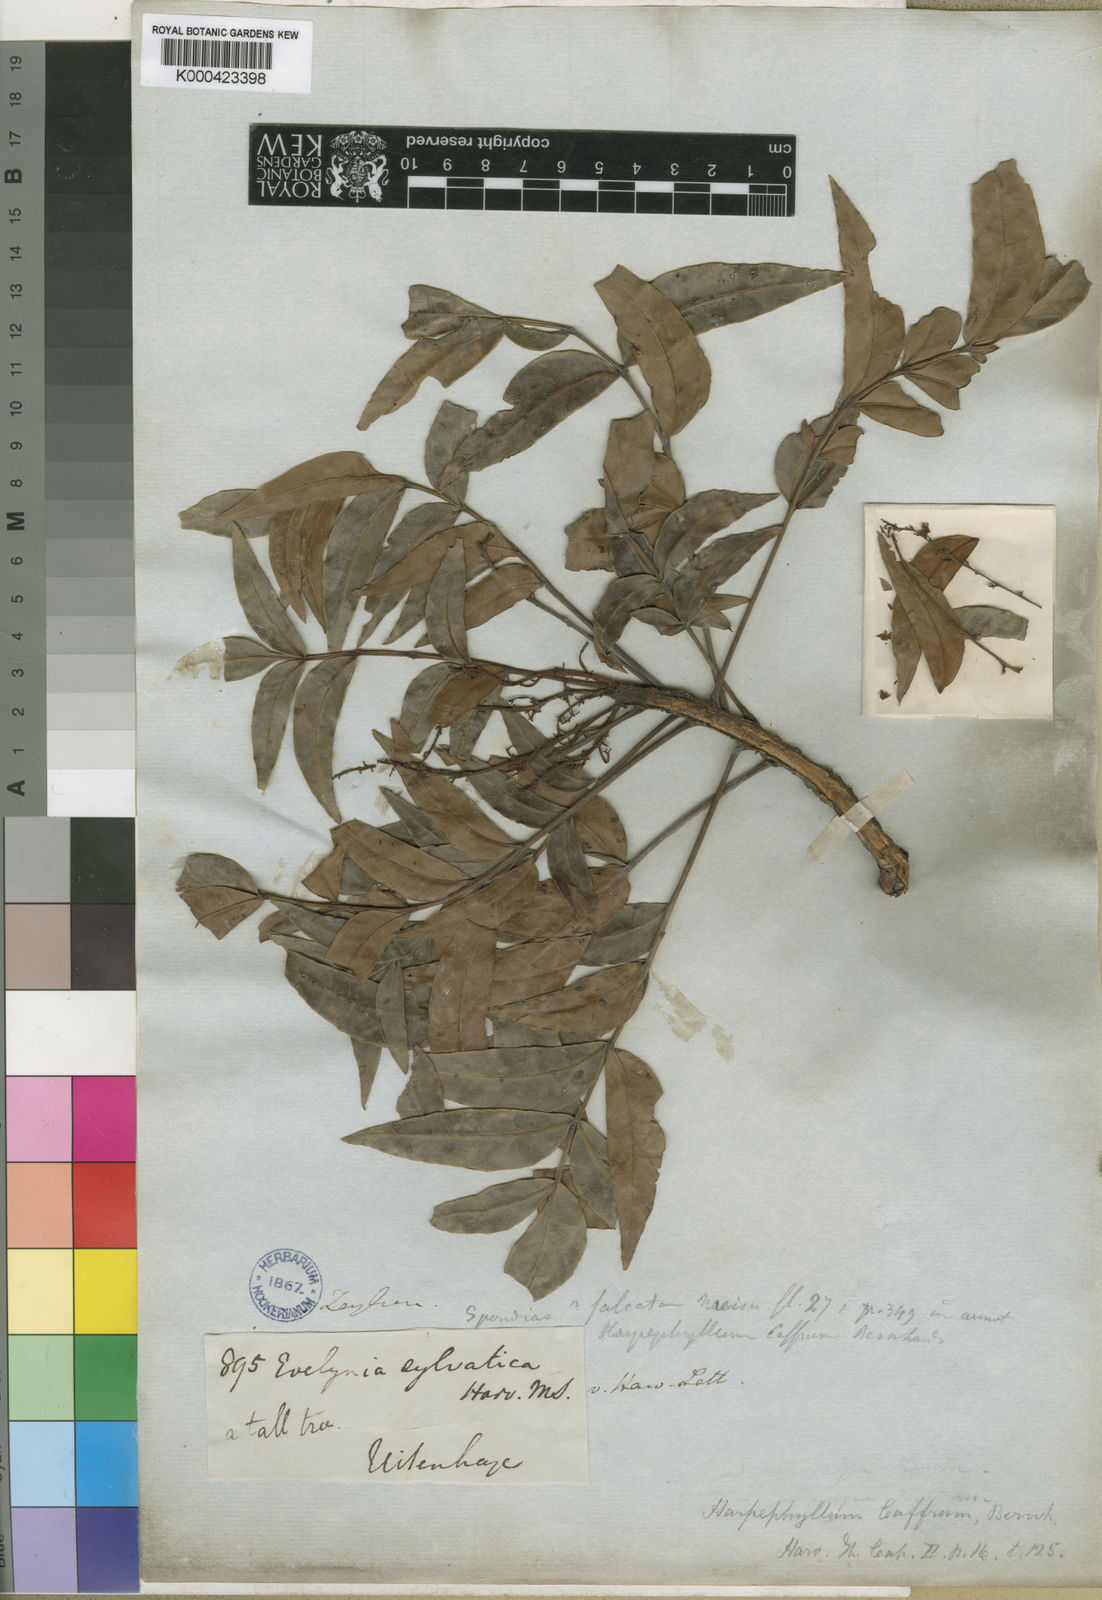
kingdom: Plantae
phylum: Tracheophyta
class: Magnoliopsida
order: Sapindales
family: Anacardiaceae
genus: Harpephyllum
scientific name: Harpephyllum caffrum
